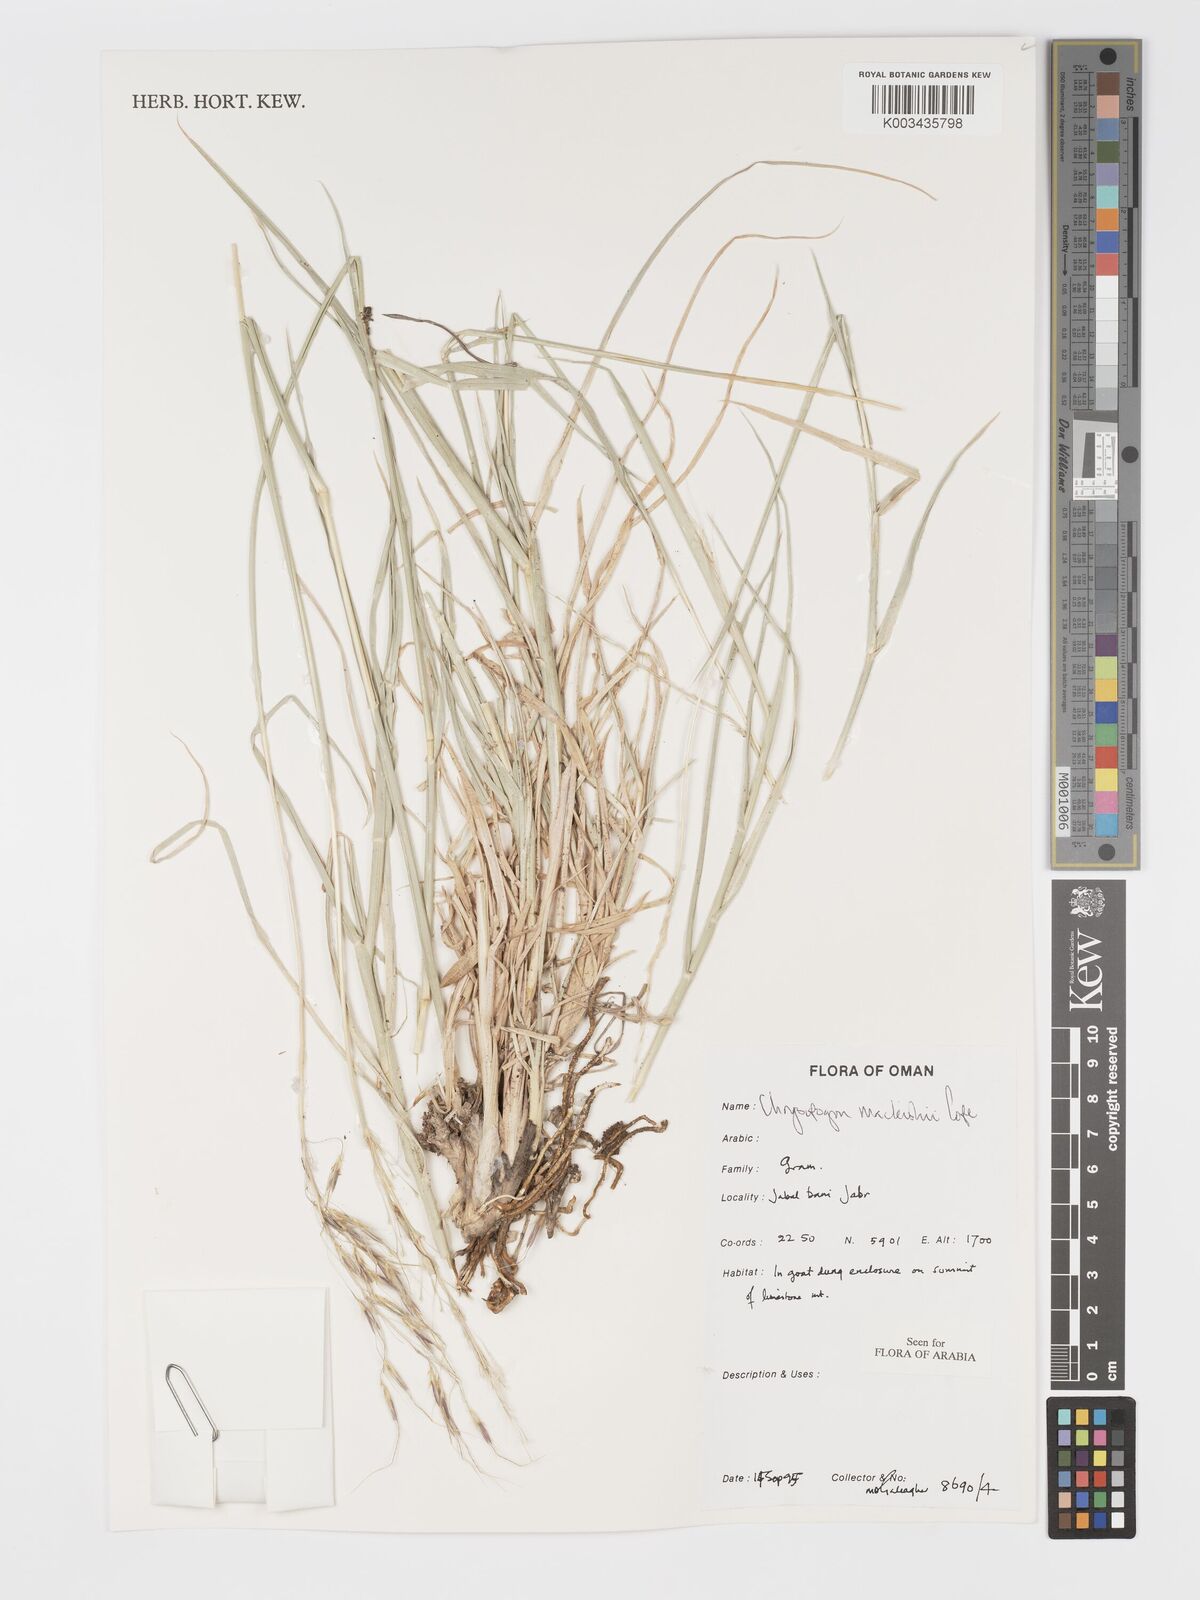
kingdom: Plantae
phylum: Tracheophyta
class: Liliopsida
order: Poales
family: Poaceae
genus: Chrysopogon
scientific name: Chrysopogon macleishii
